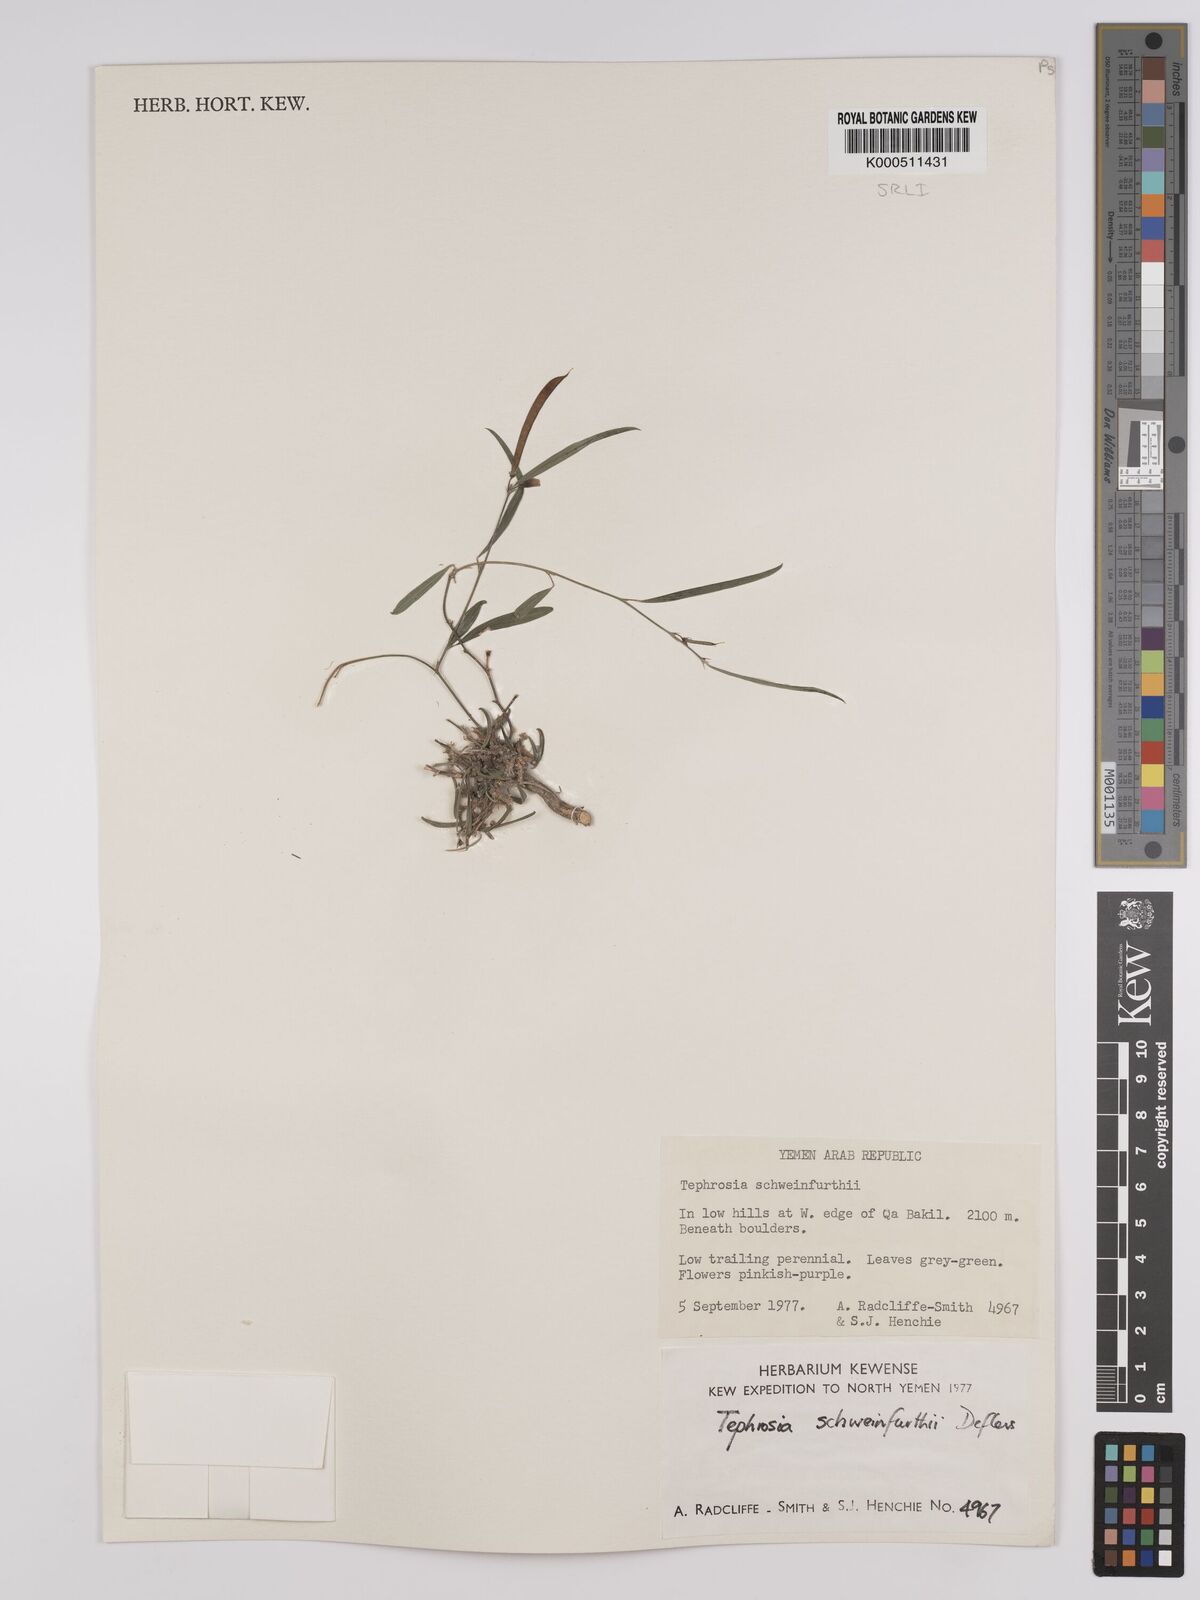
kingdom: Plantae
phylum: Tracheophyta
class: Magnoliopsida
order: Fabales
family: Fabaceae
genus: Tephrosia
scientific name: Tephrosia heterophylla
